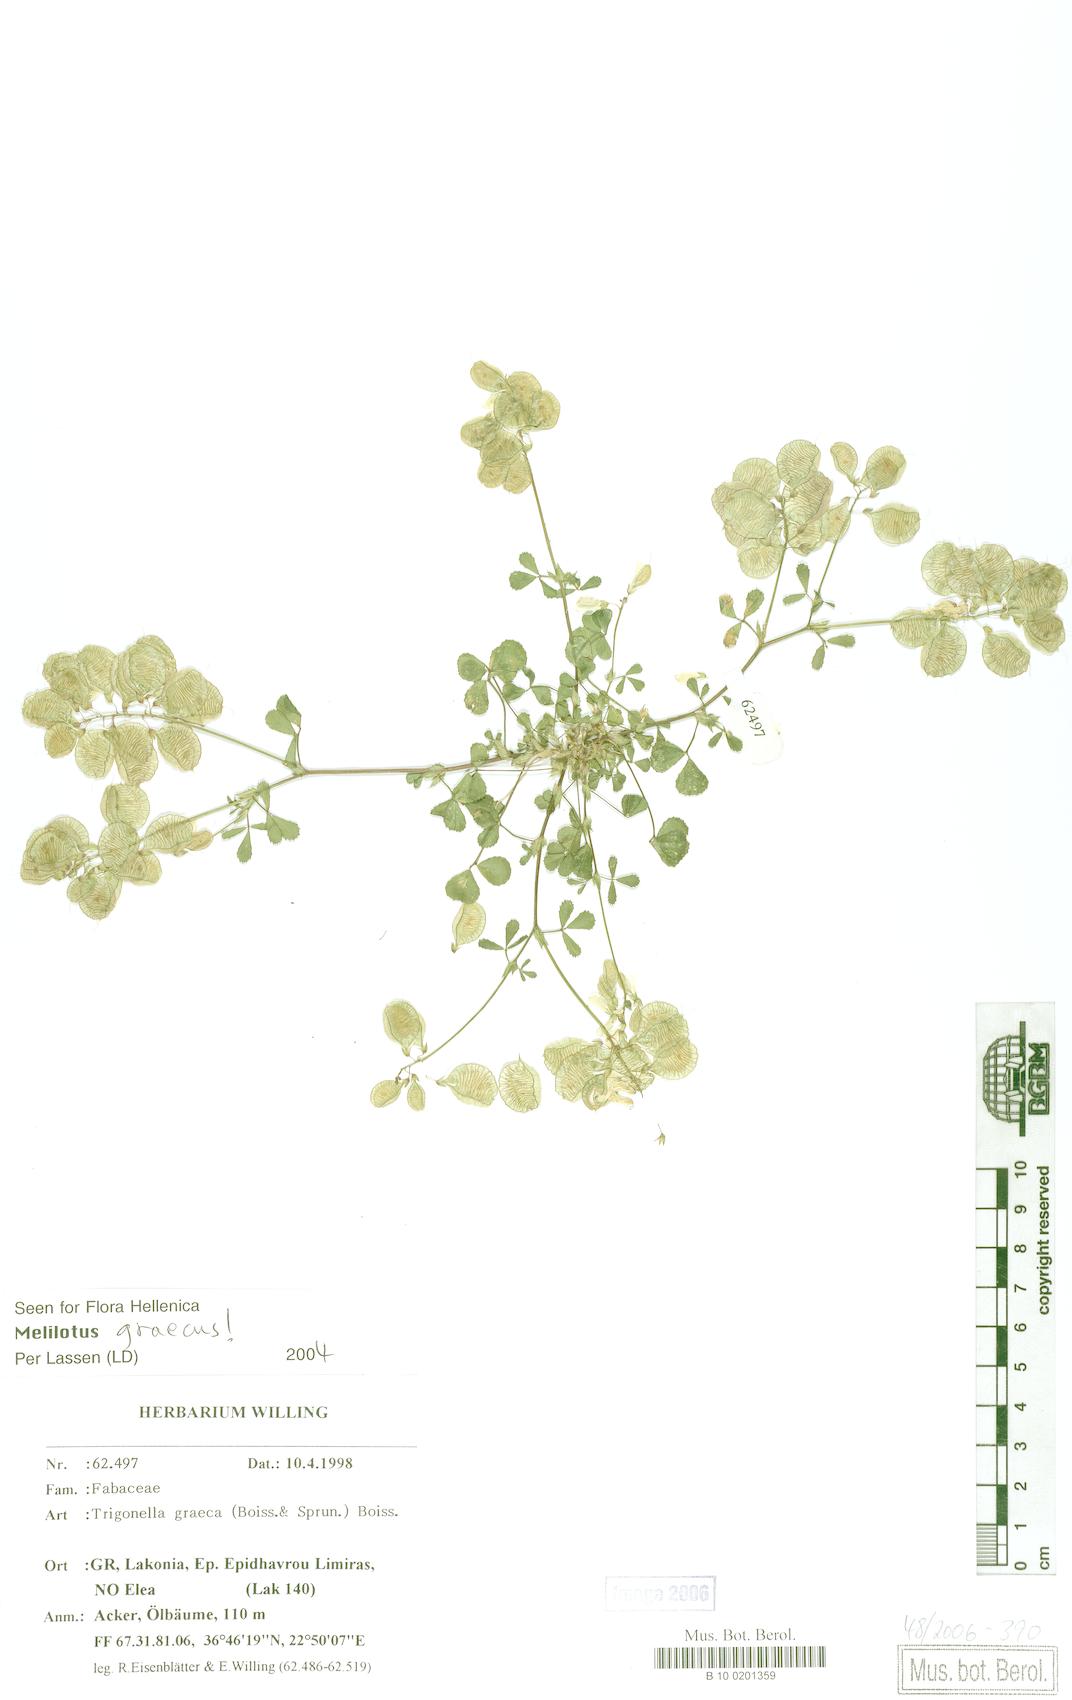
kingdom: Plantae
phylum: Tracheophyta
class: Magnoliopsida
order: Fabales
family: Fabaceae
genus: Trigonella
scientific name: Trigonella graeca
